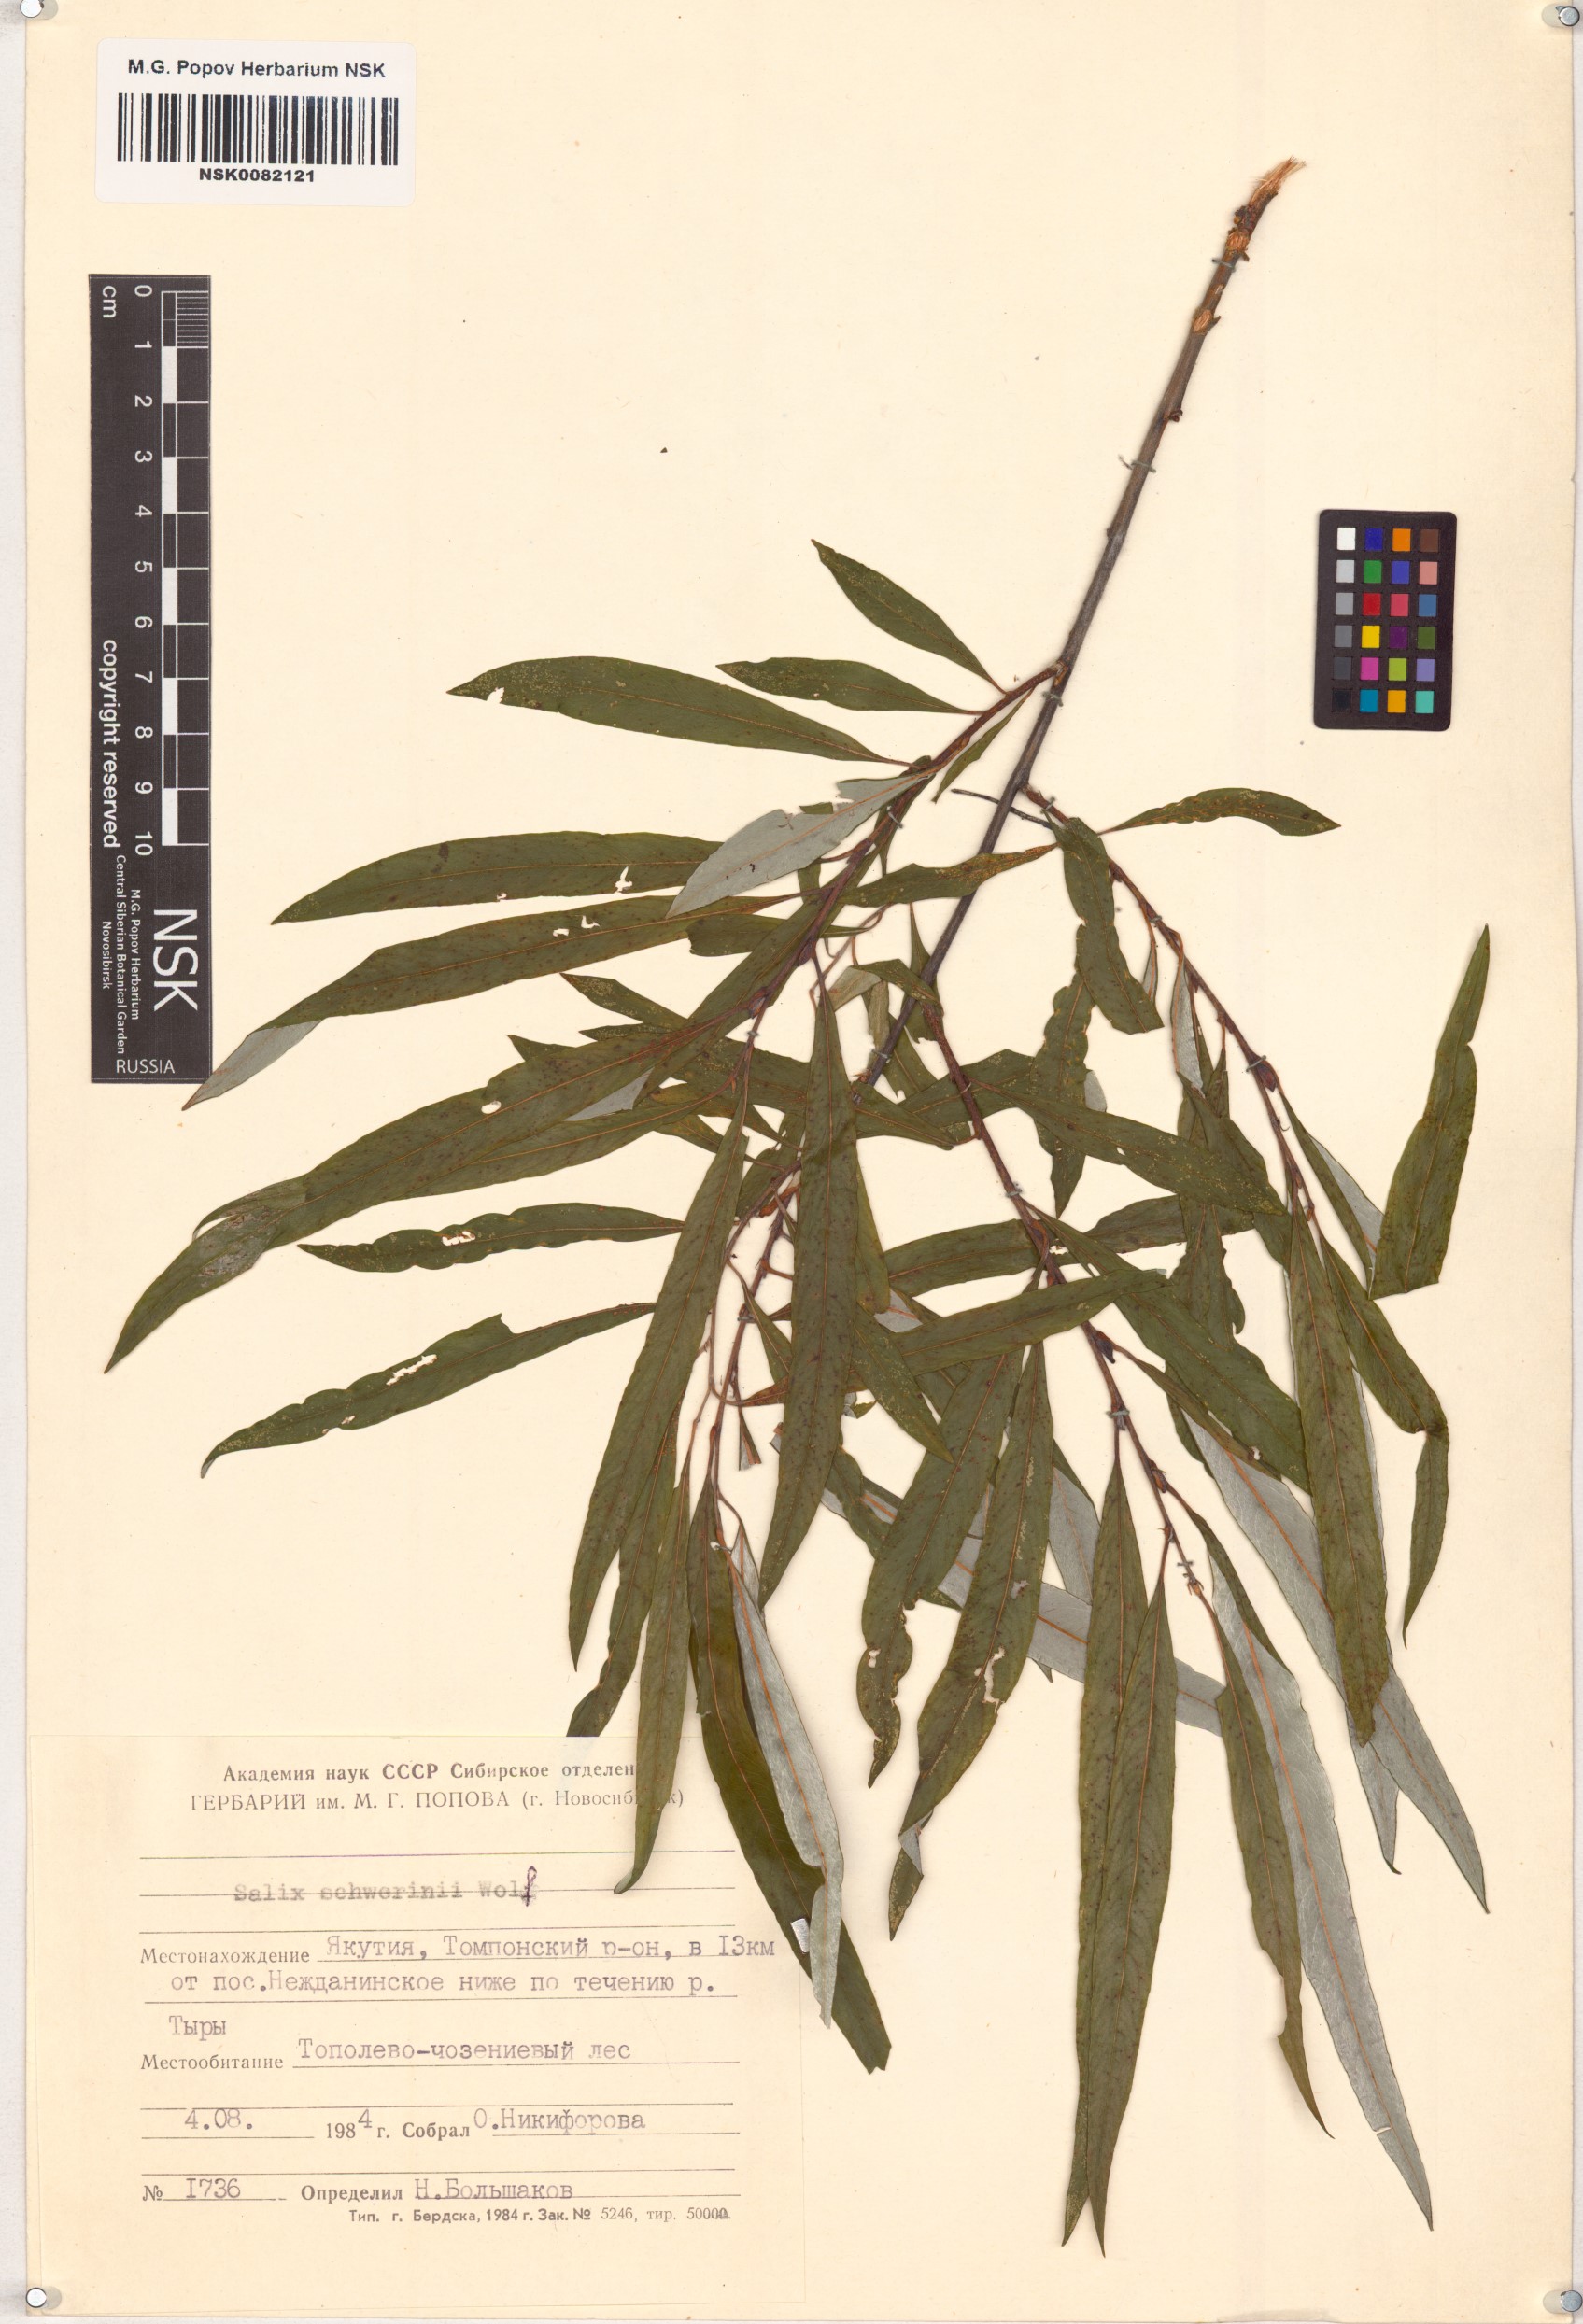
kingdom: Plantae
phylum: Tracheophyta
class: Magnoliopsida
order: Malpighiales
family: Salicaceae
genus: Salix
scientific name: Salix schwerinii
